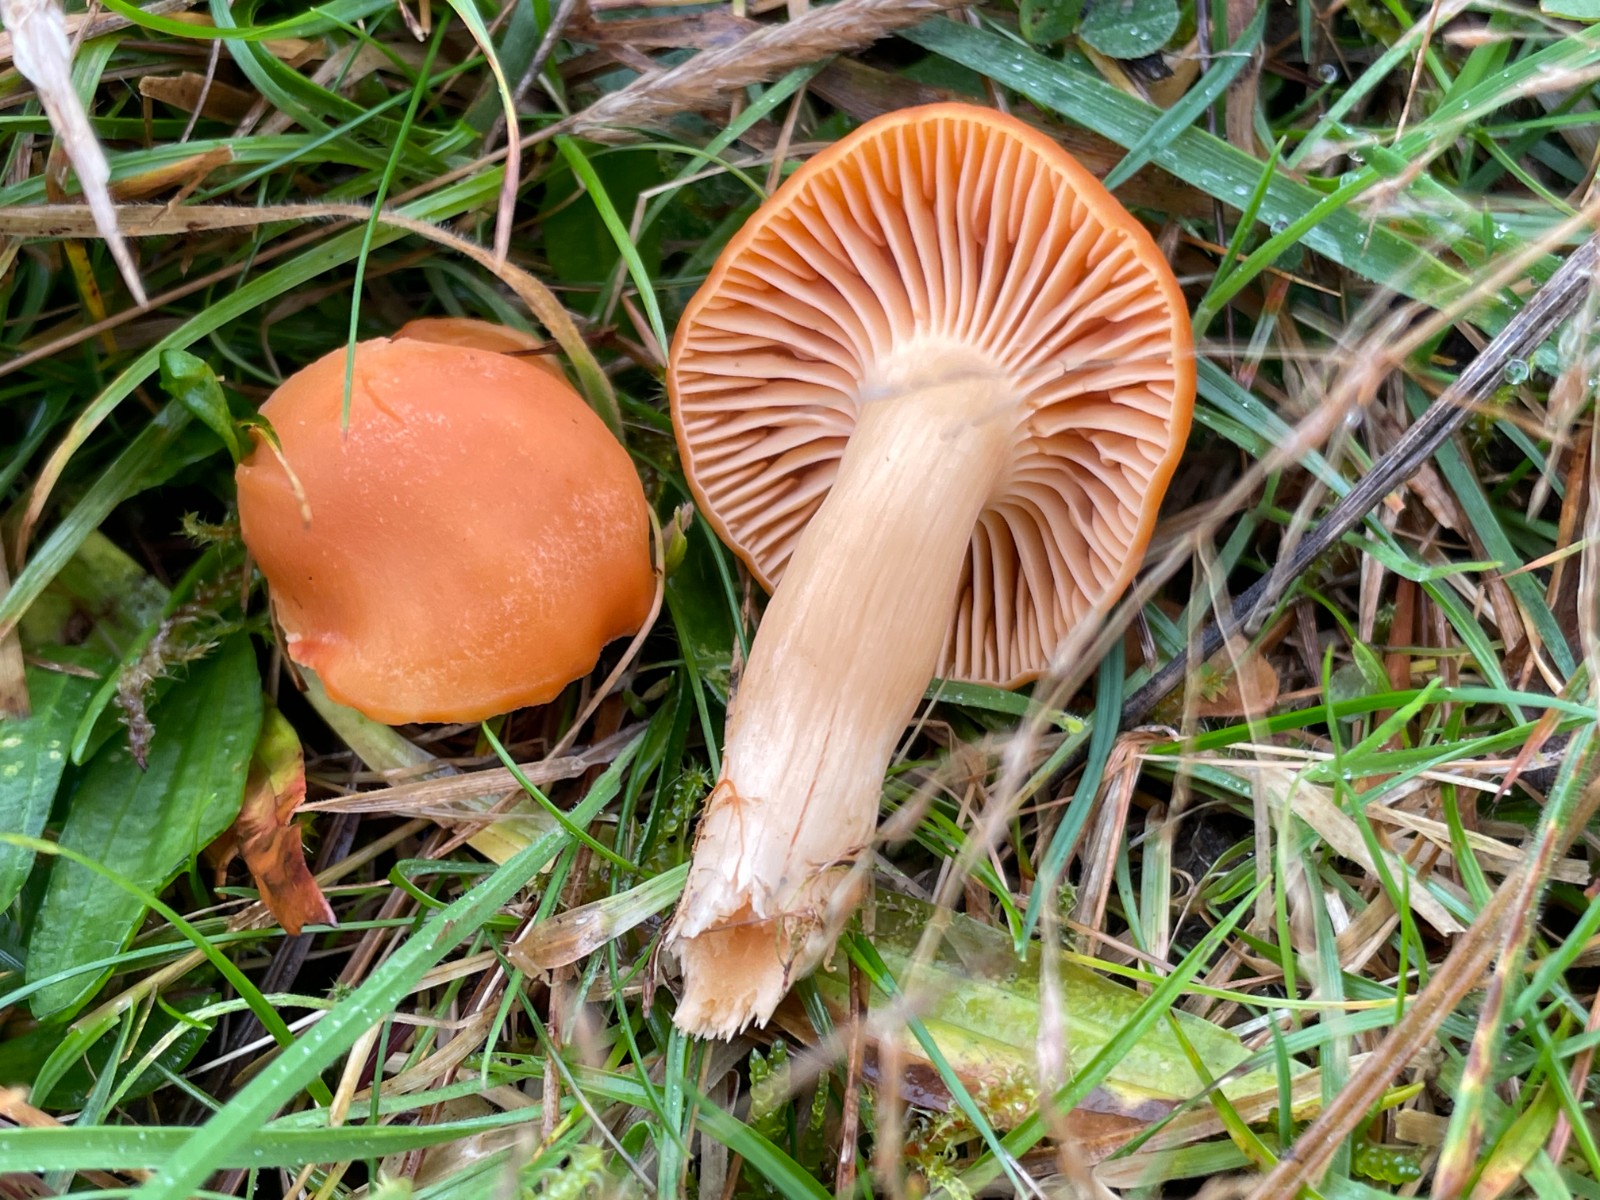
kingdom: Fungi
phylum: Basidiomycota
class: Agaricomycetes
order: Agaricales
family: Hygrophoraceae
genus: Cuphophyllus
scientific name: Cuphophyllus pratensis
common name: eng-vokshat
